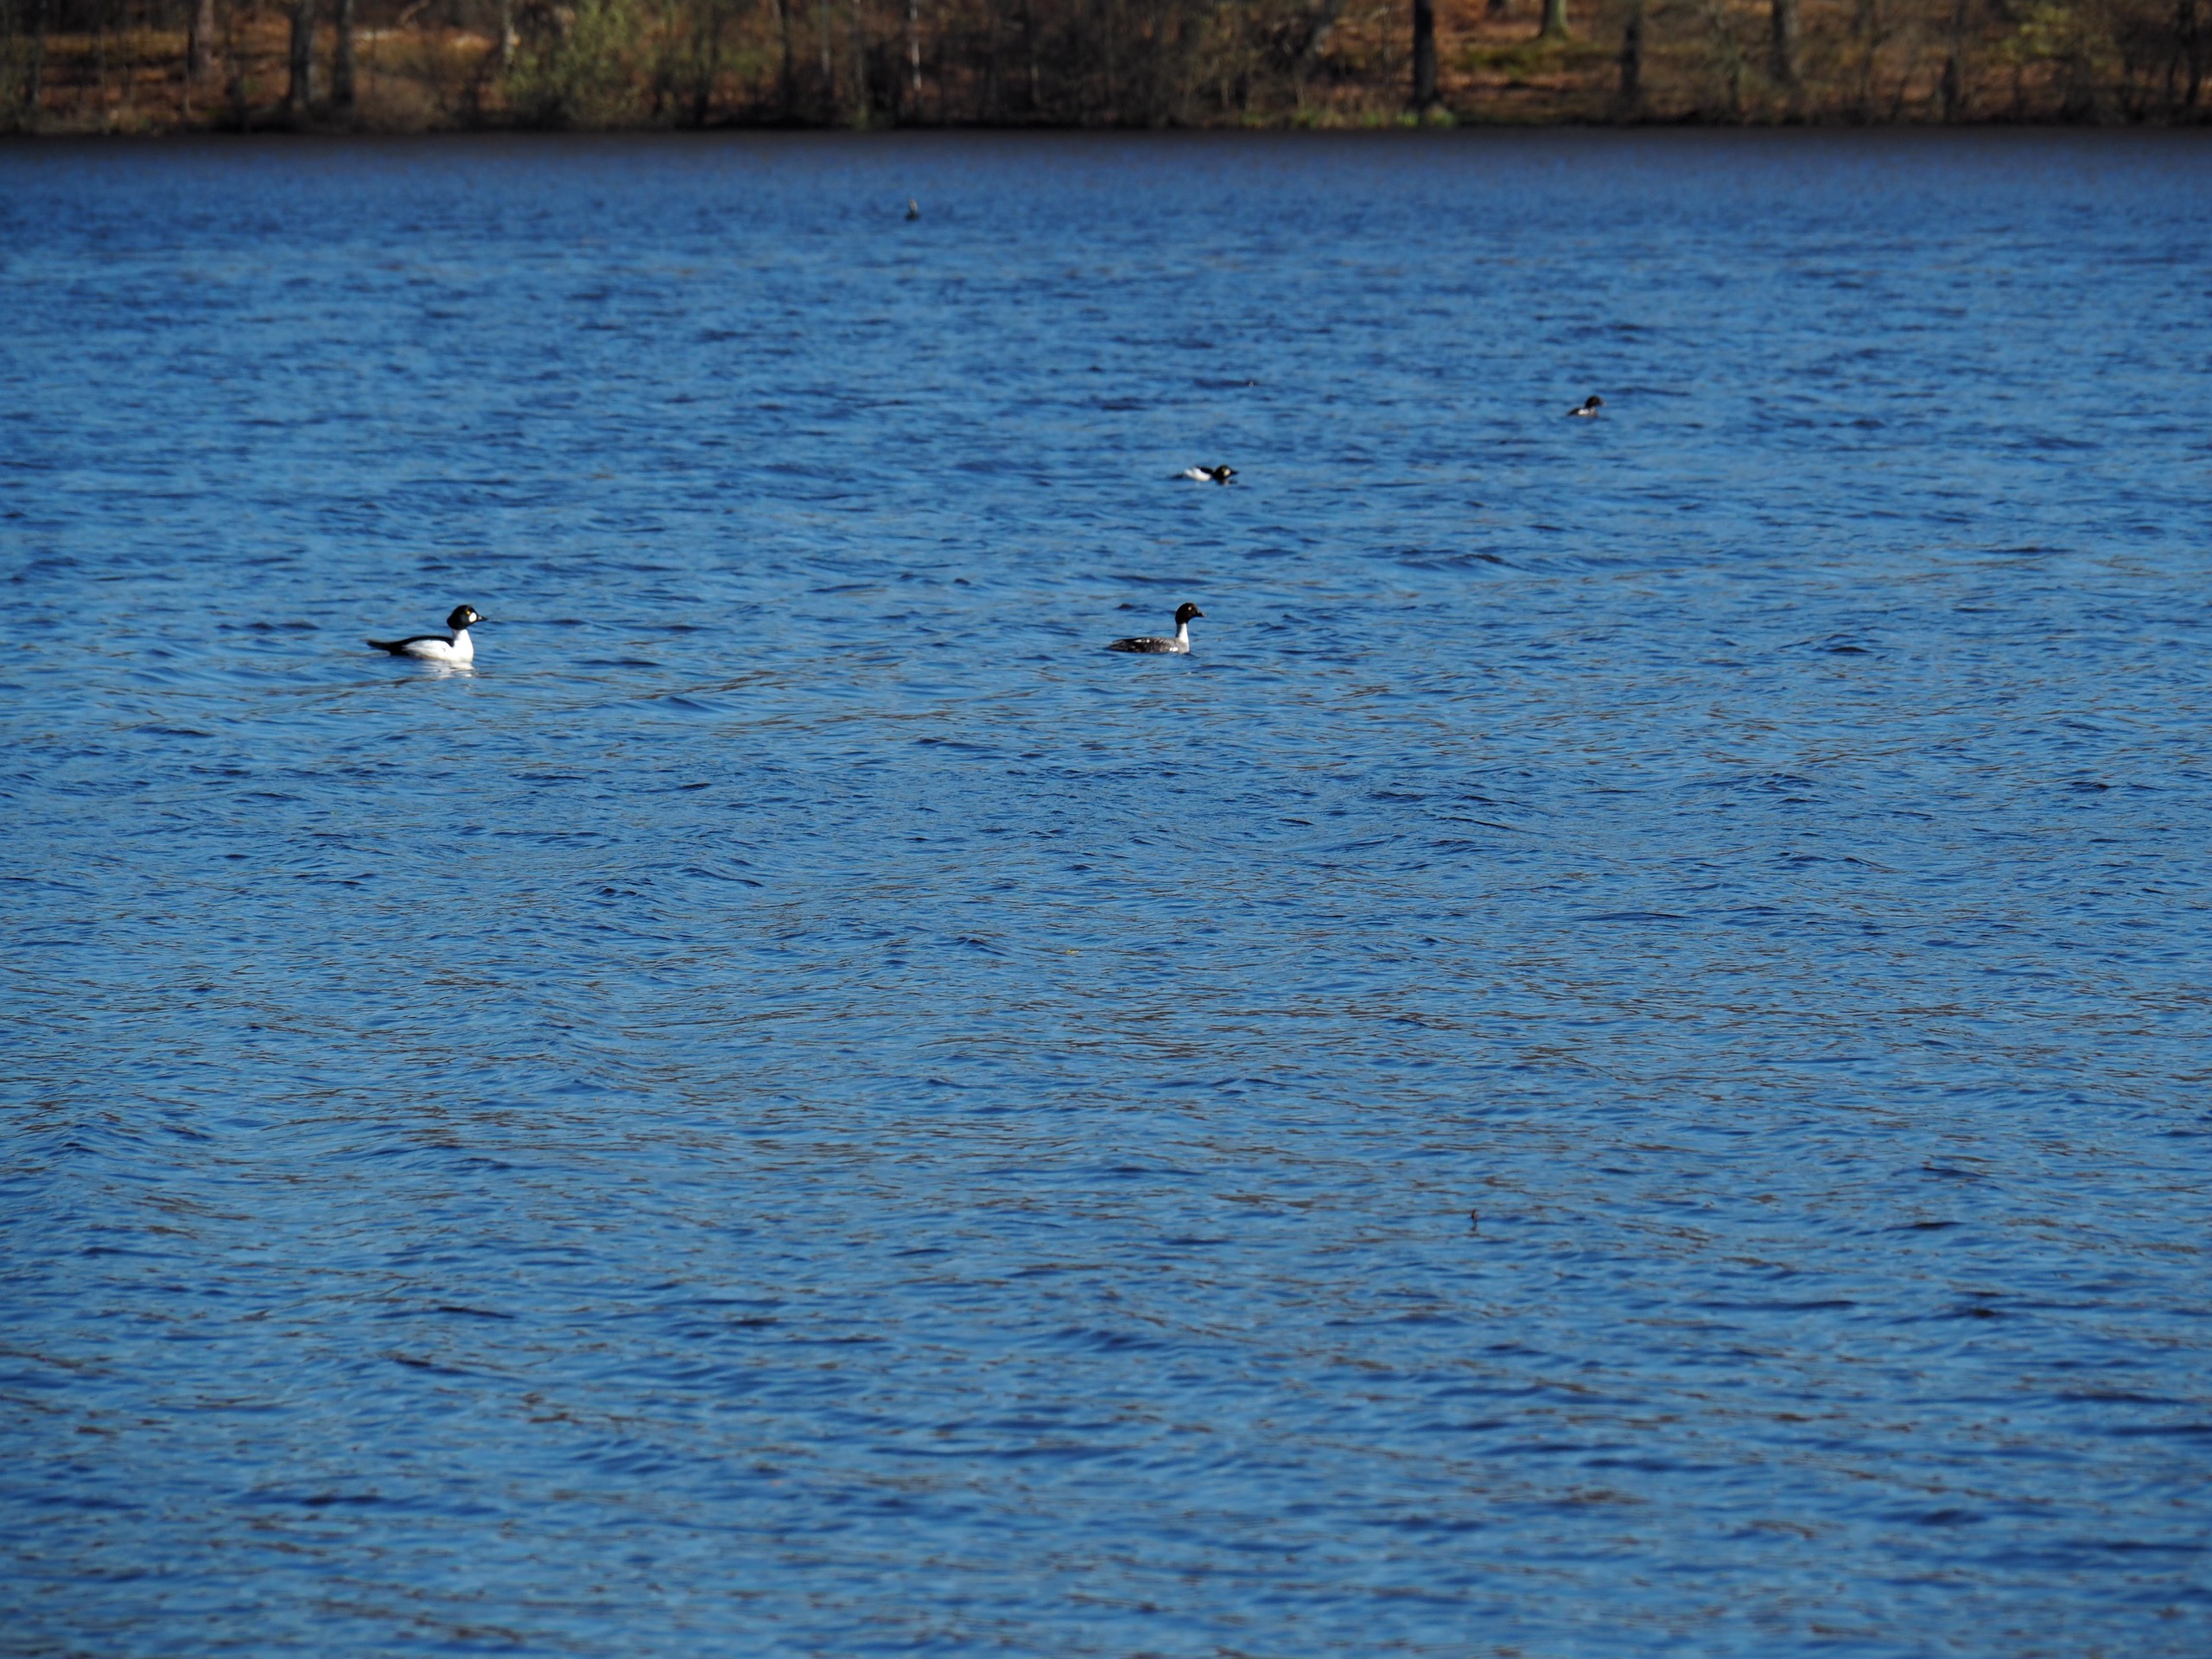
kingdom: Animalia
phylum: Chordata
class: Aves
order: Anseriformes
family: Anatidae
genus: Bucephala
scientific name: Bucephala clangula
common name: Hvinand
